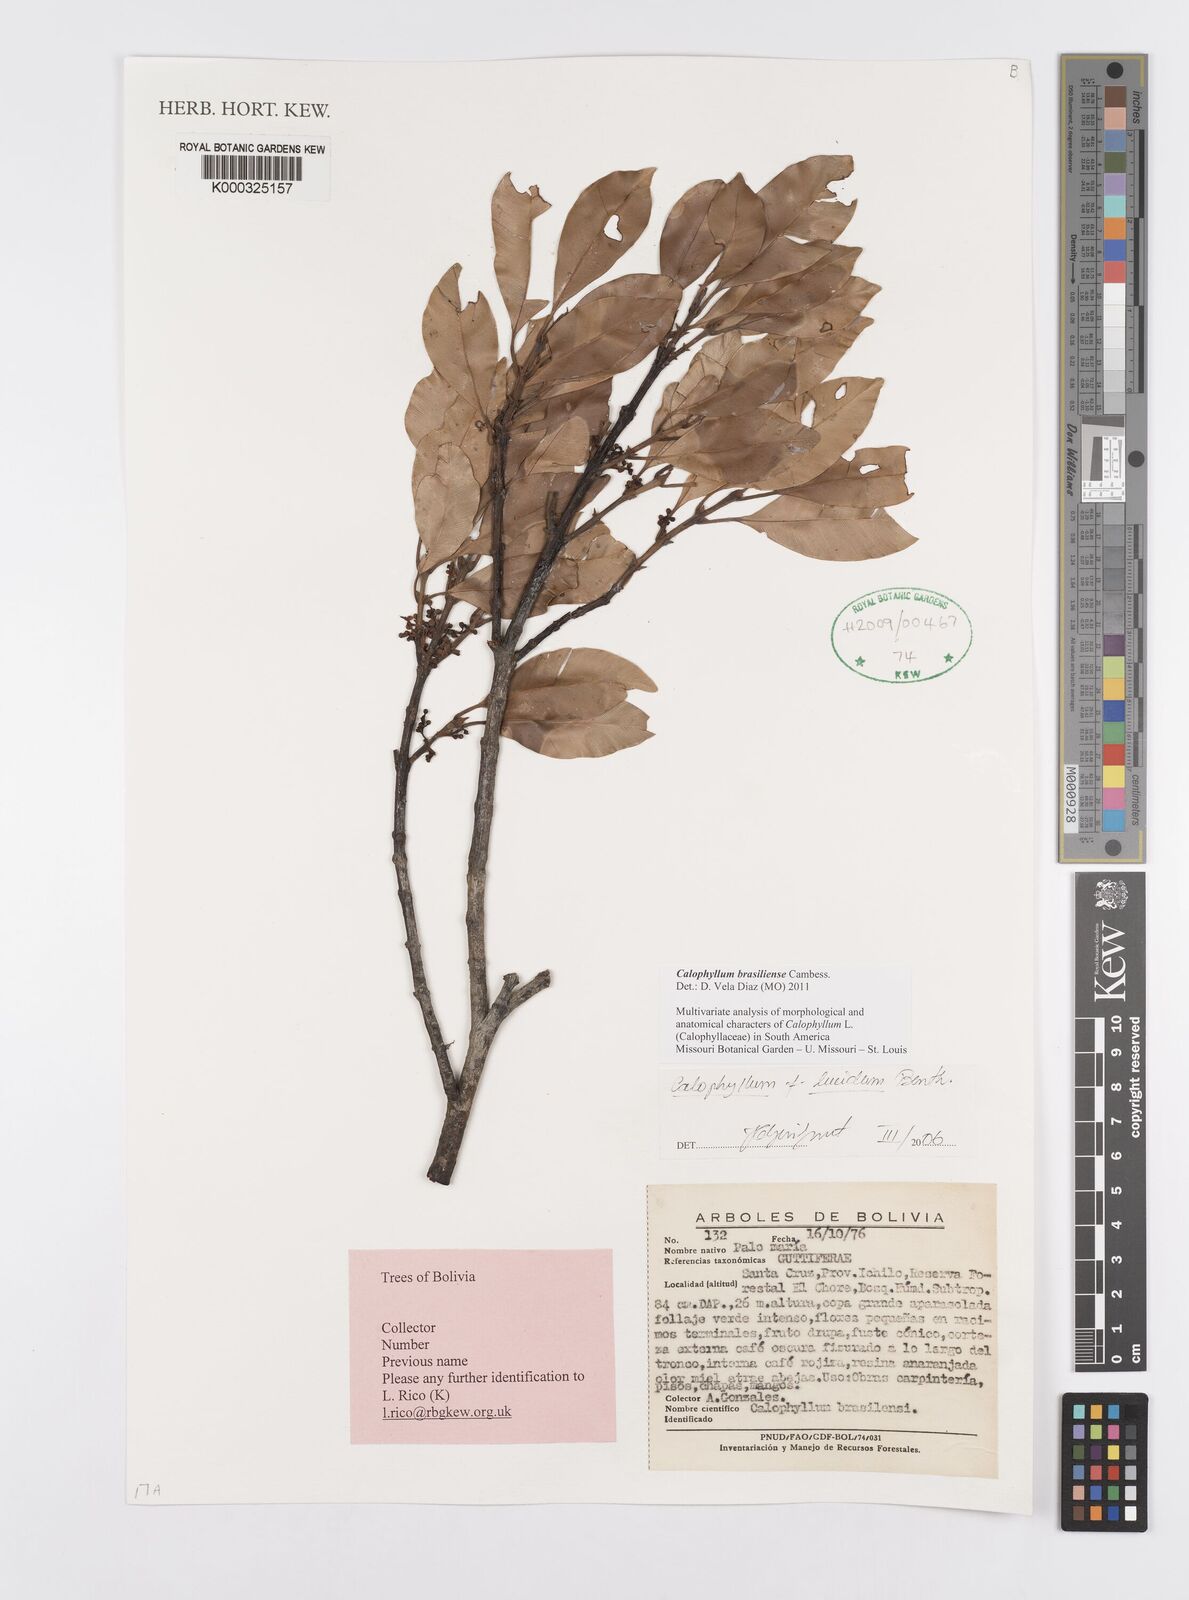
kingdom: Plantae
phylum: Tracheophyta
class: Magnoliopsida
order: Malpighiales
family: Calophyllaceae
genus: Calophyllum
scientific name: Calophyllum brasiliense
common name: Santa maria
